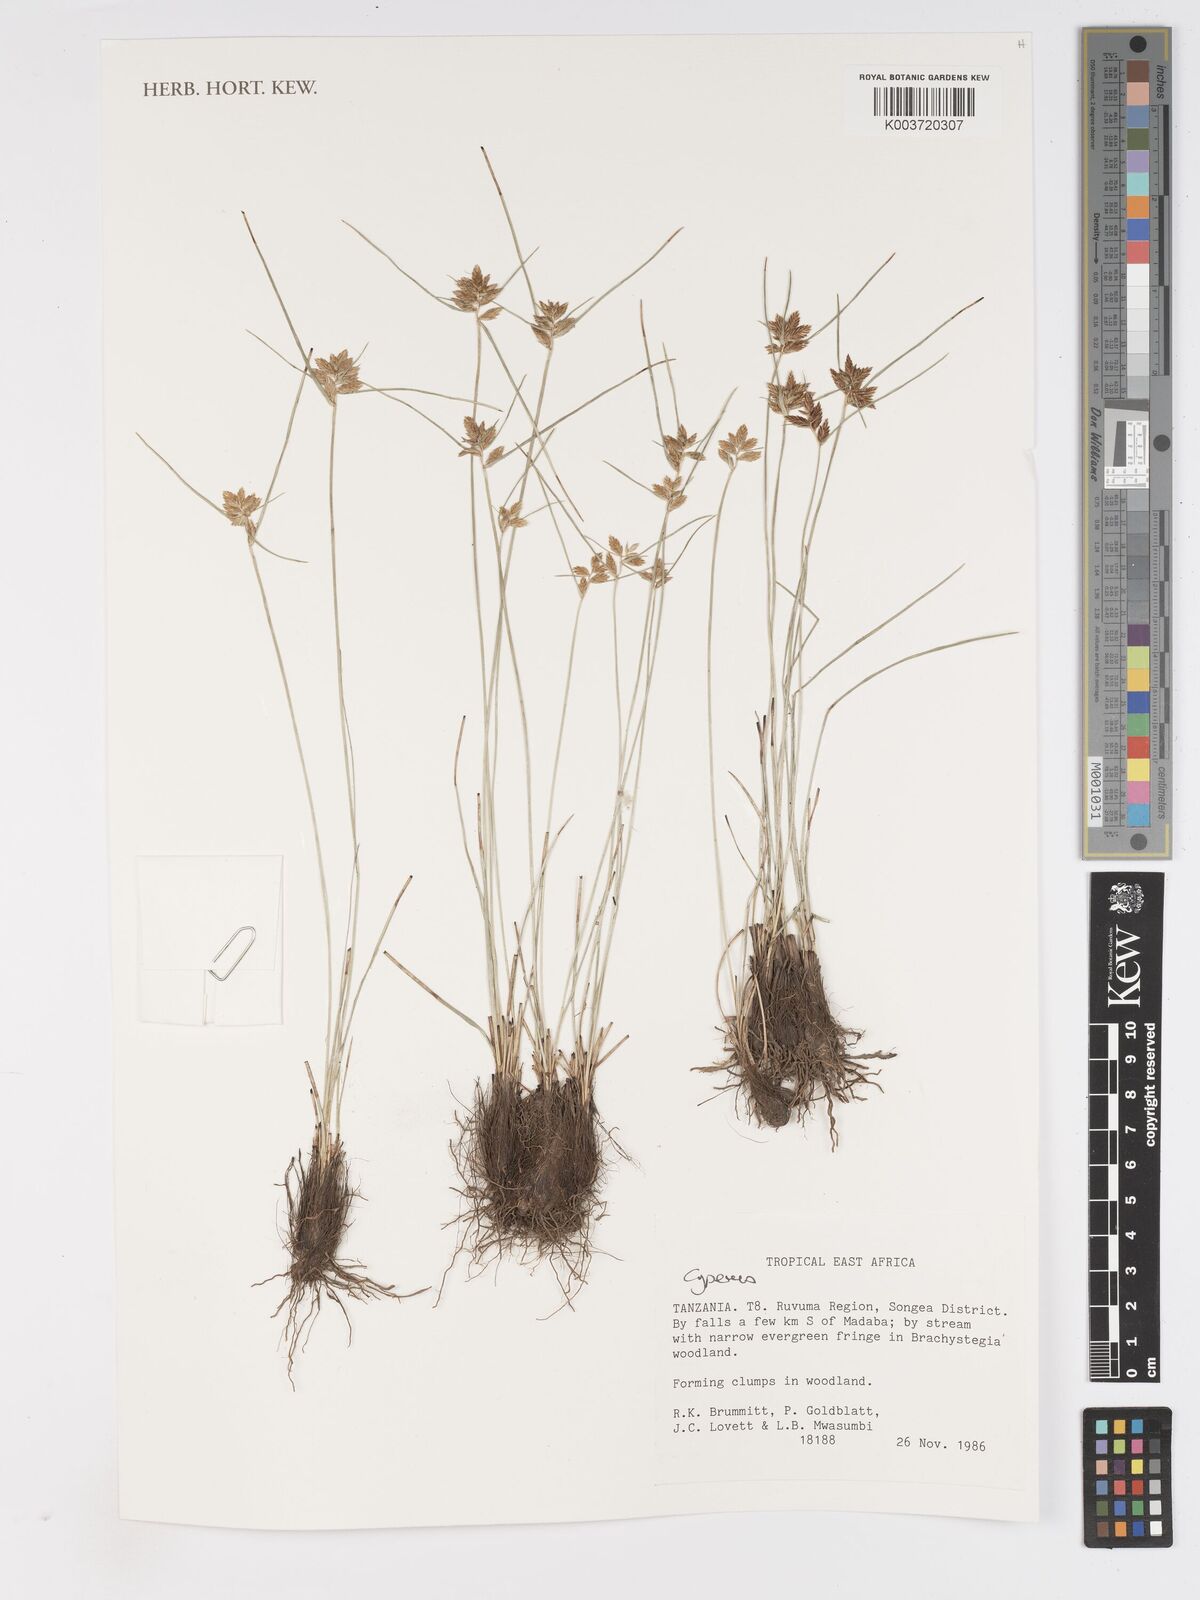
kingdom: Plantae
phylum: Tracheophyta
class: Liliopsida
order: Poales
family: Cyperaceae
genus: Cyperus
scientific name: Cyperus
